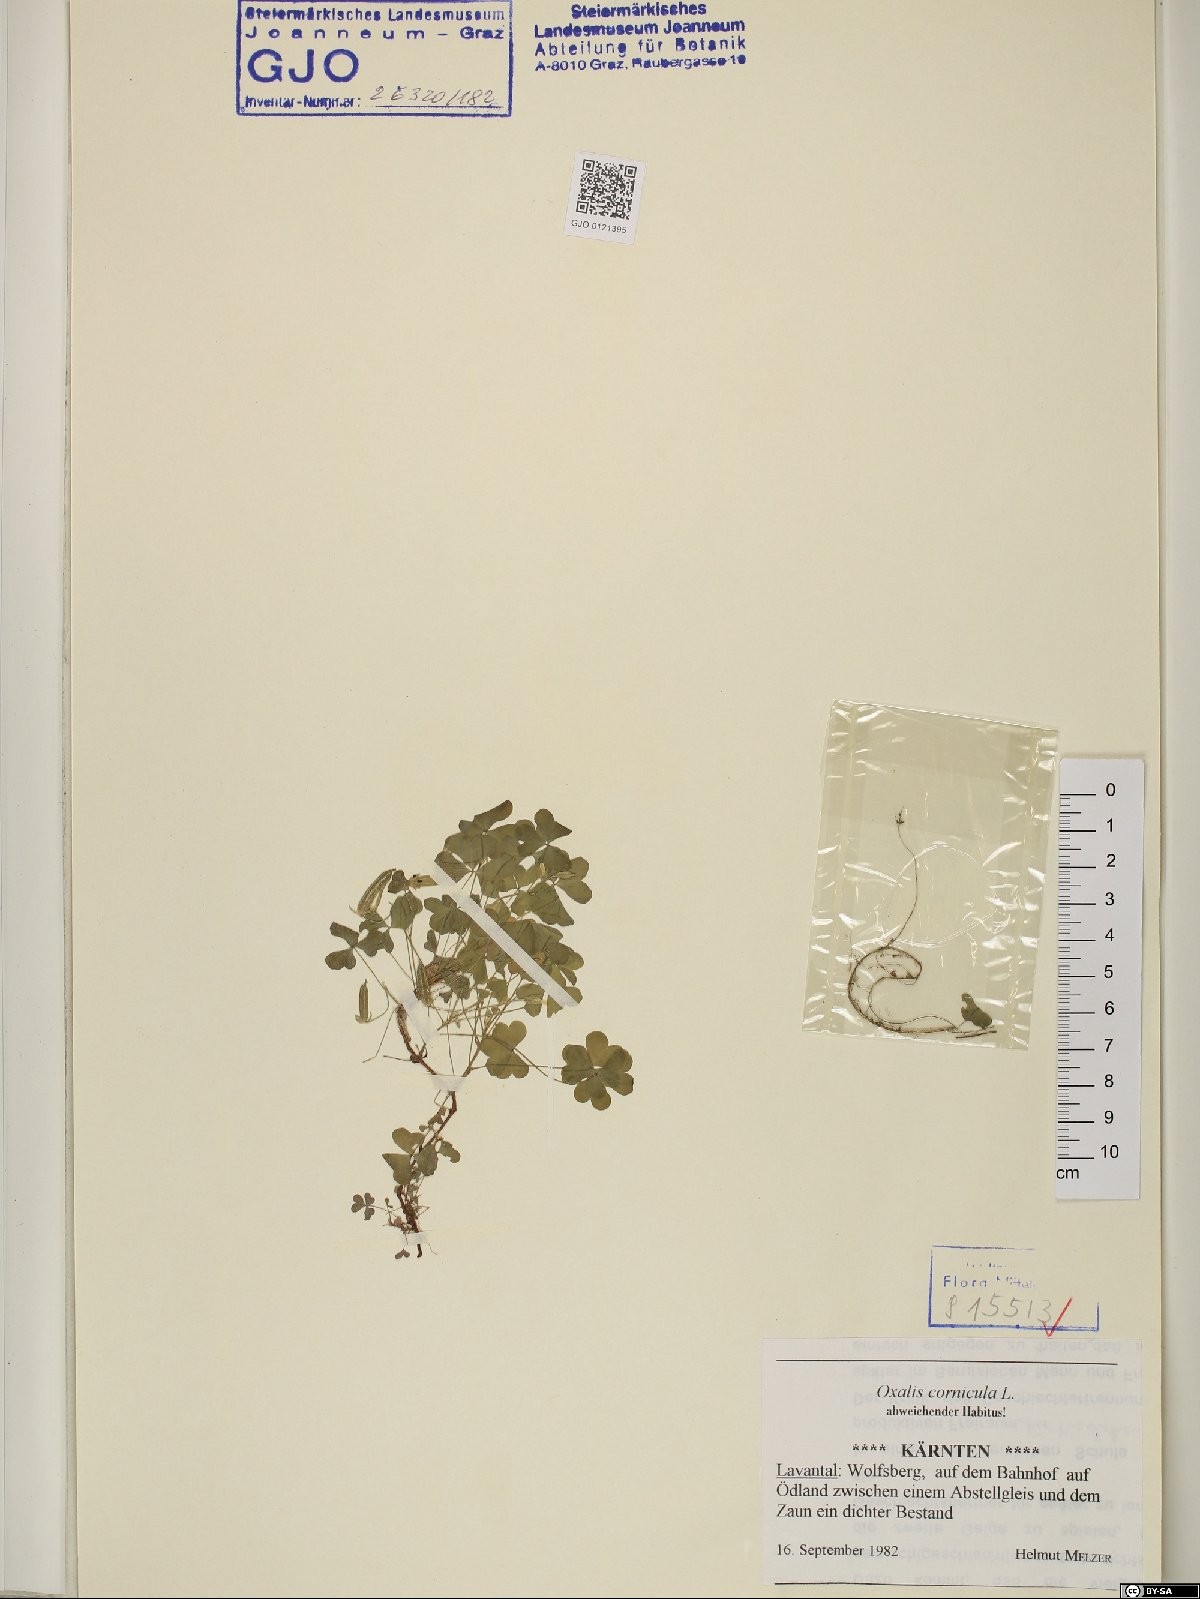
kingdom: Plantae
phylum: Tracheophyta
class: Magnoliopsida
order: Oxalidales
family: Oxalidaceae
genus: Oxalis
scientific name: Oxalis corniculata
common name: Procumbent yellow-sorrel
